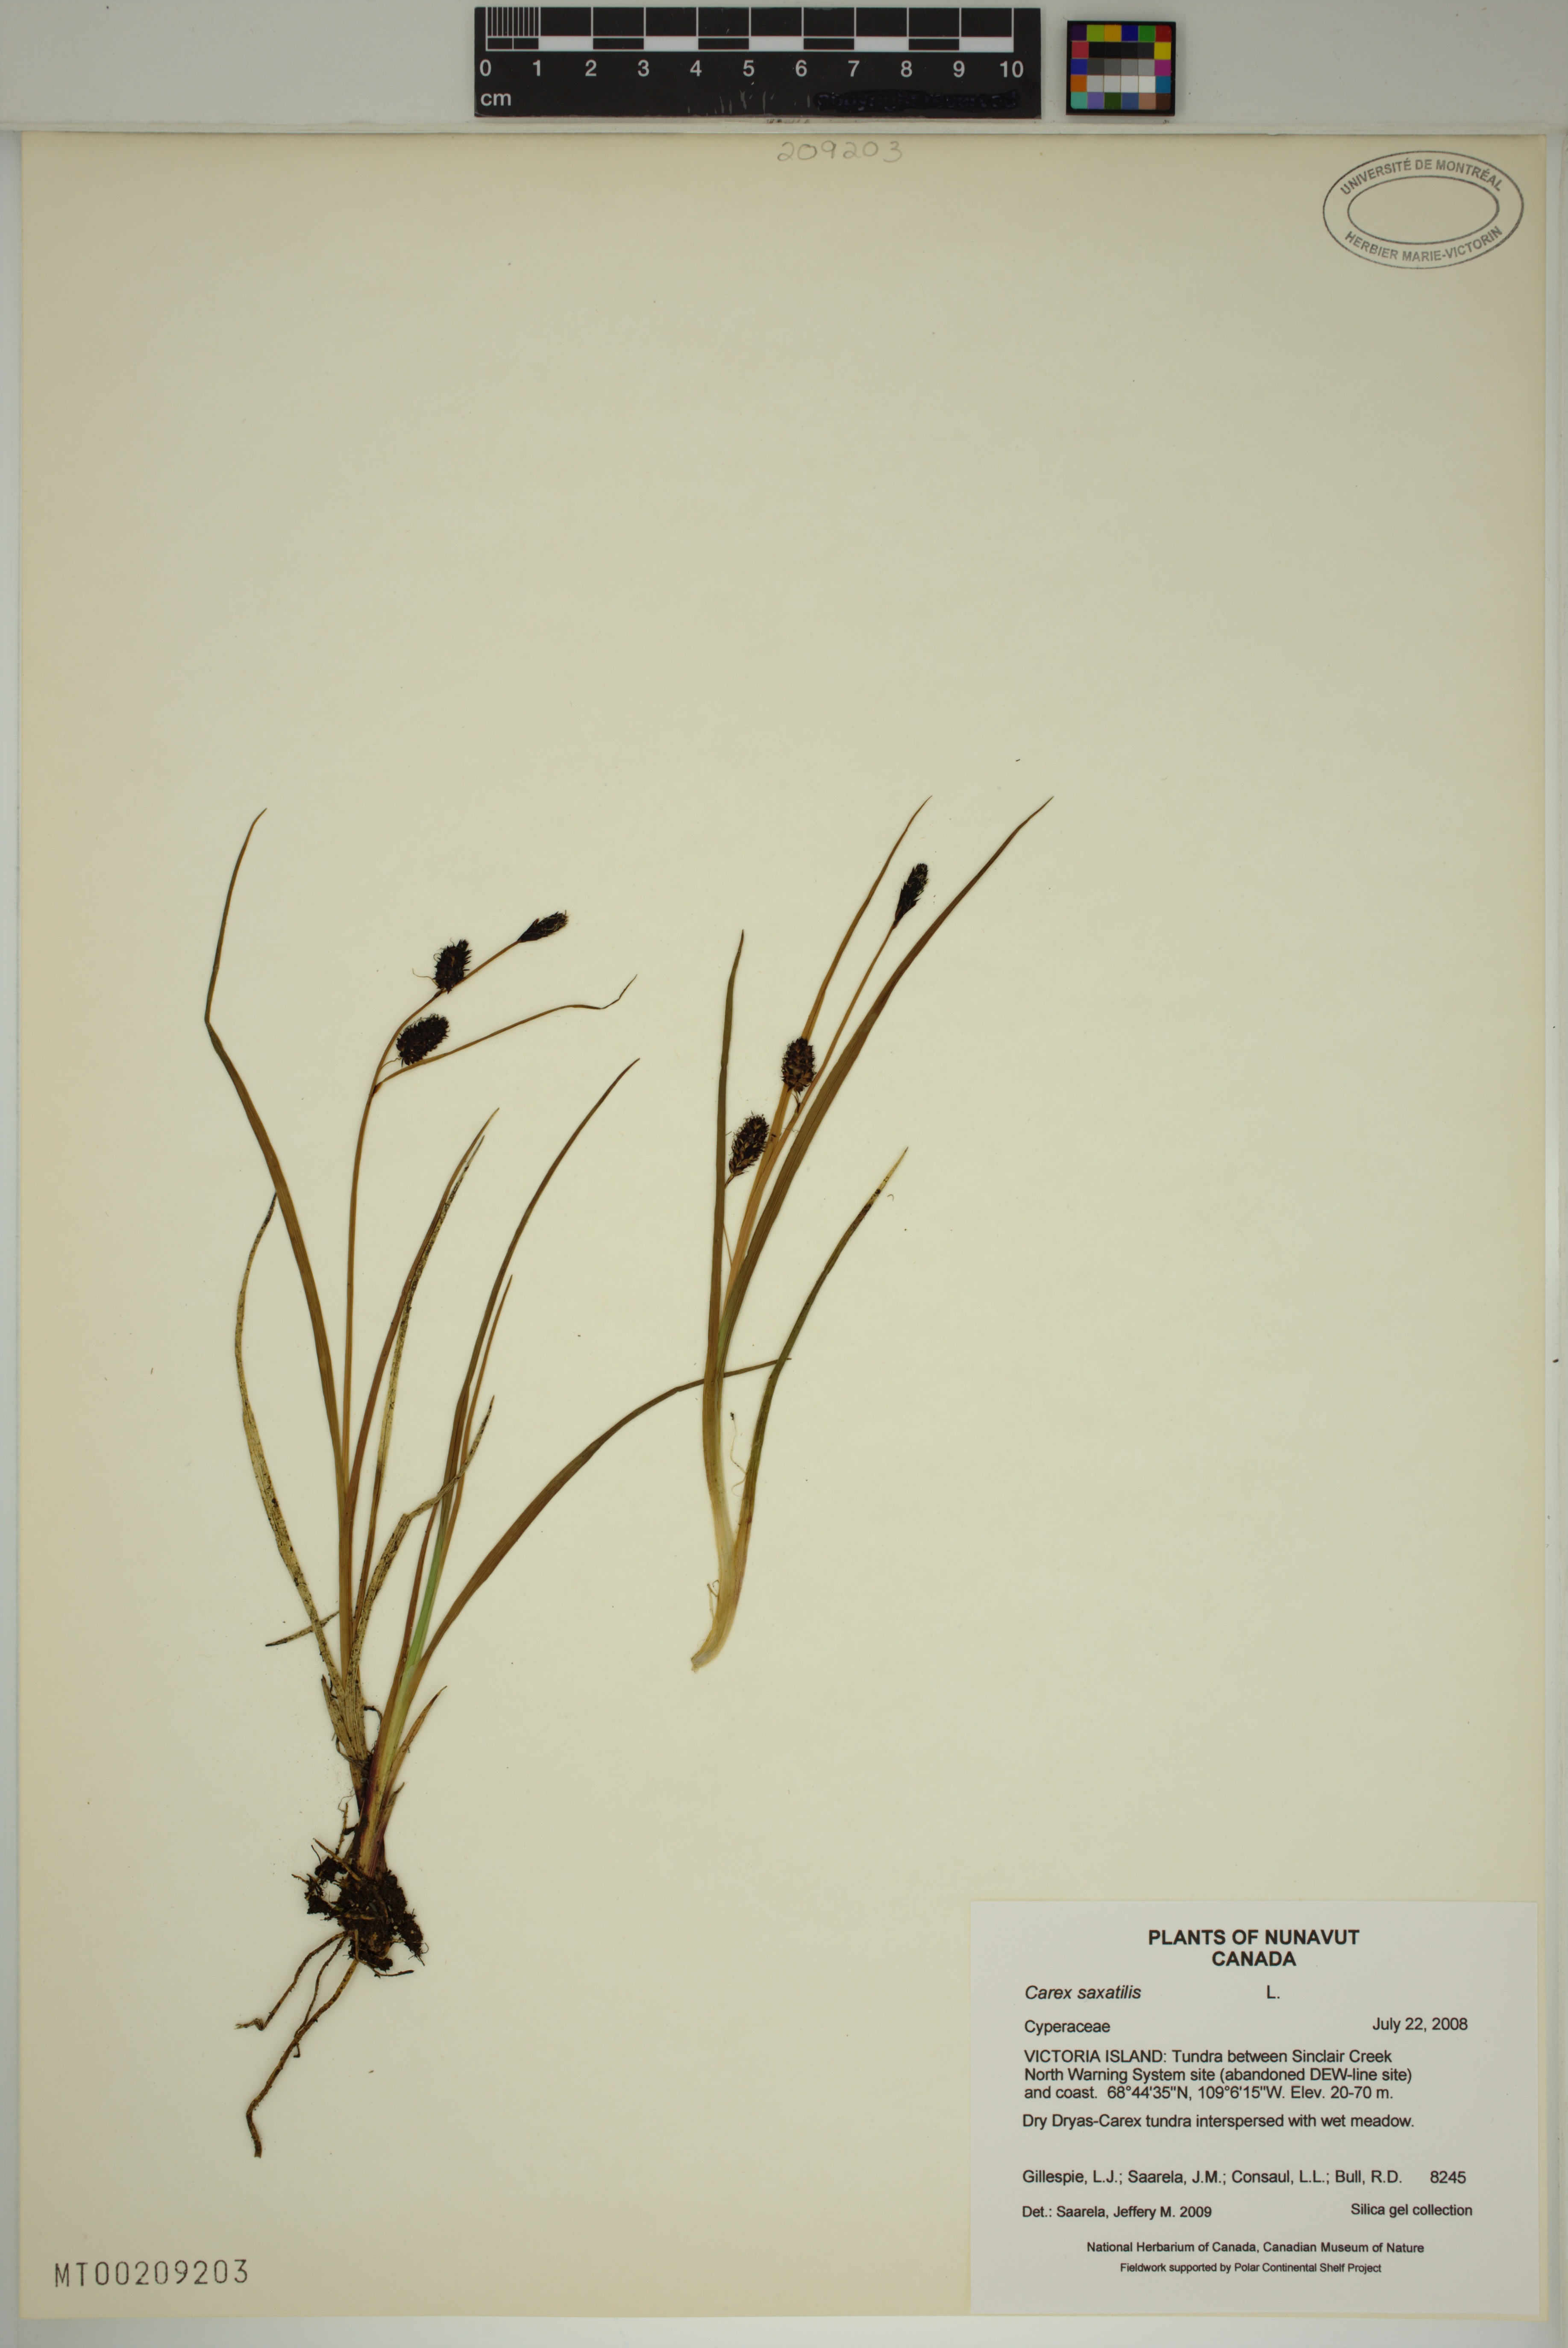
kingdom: Plantae
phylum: Tracheophyta
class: Liliopsida
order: Poales
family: Cyperaceae
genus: Carex
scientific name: Carex saxatilis
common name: Russet sedge
